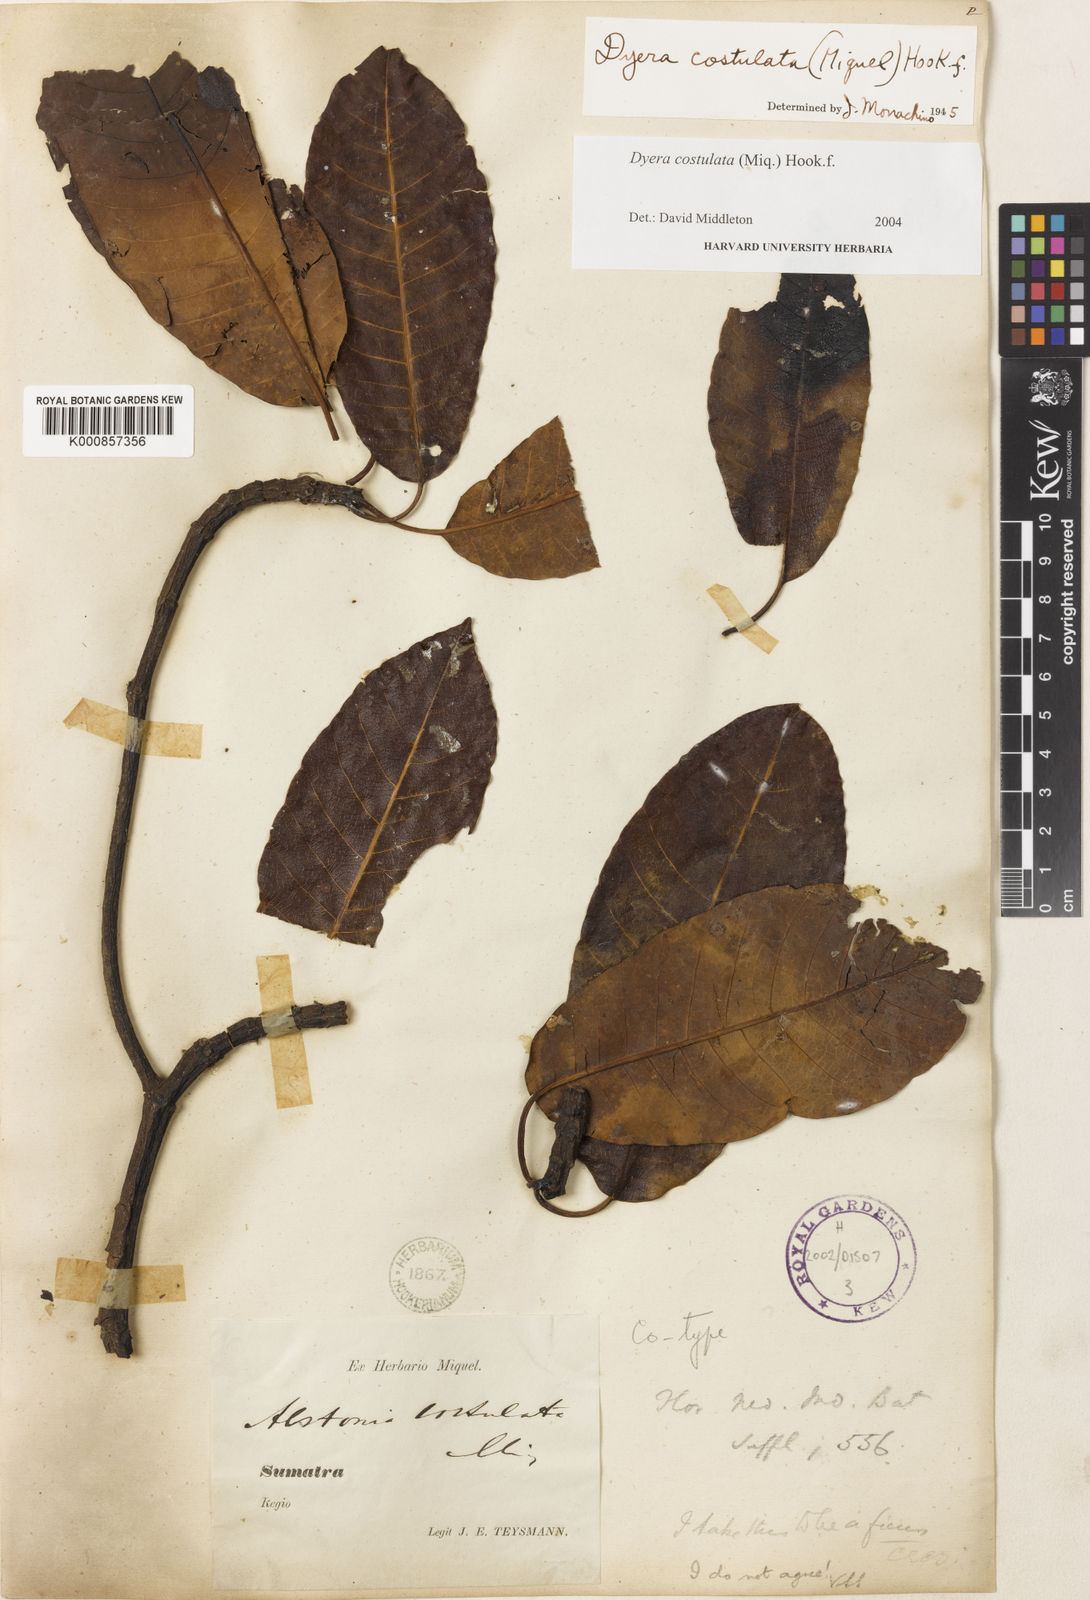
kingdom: Plantae
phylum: Tracheophyta
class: Magnoliopsida
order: Gentianales
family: Apocynaceae
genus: Dyera
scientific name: Dyera costulata
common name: Hill jelutong
